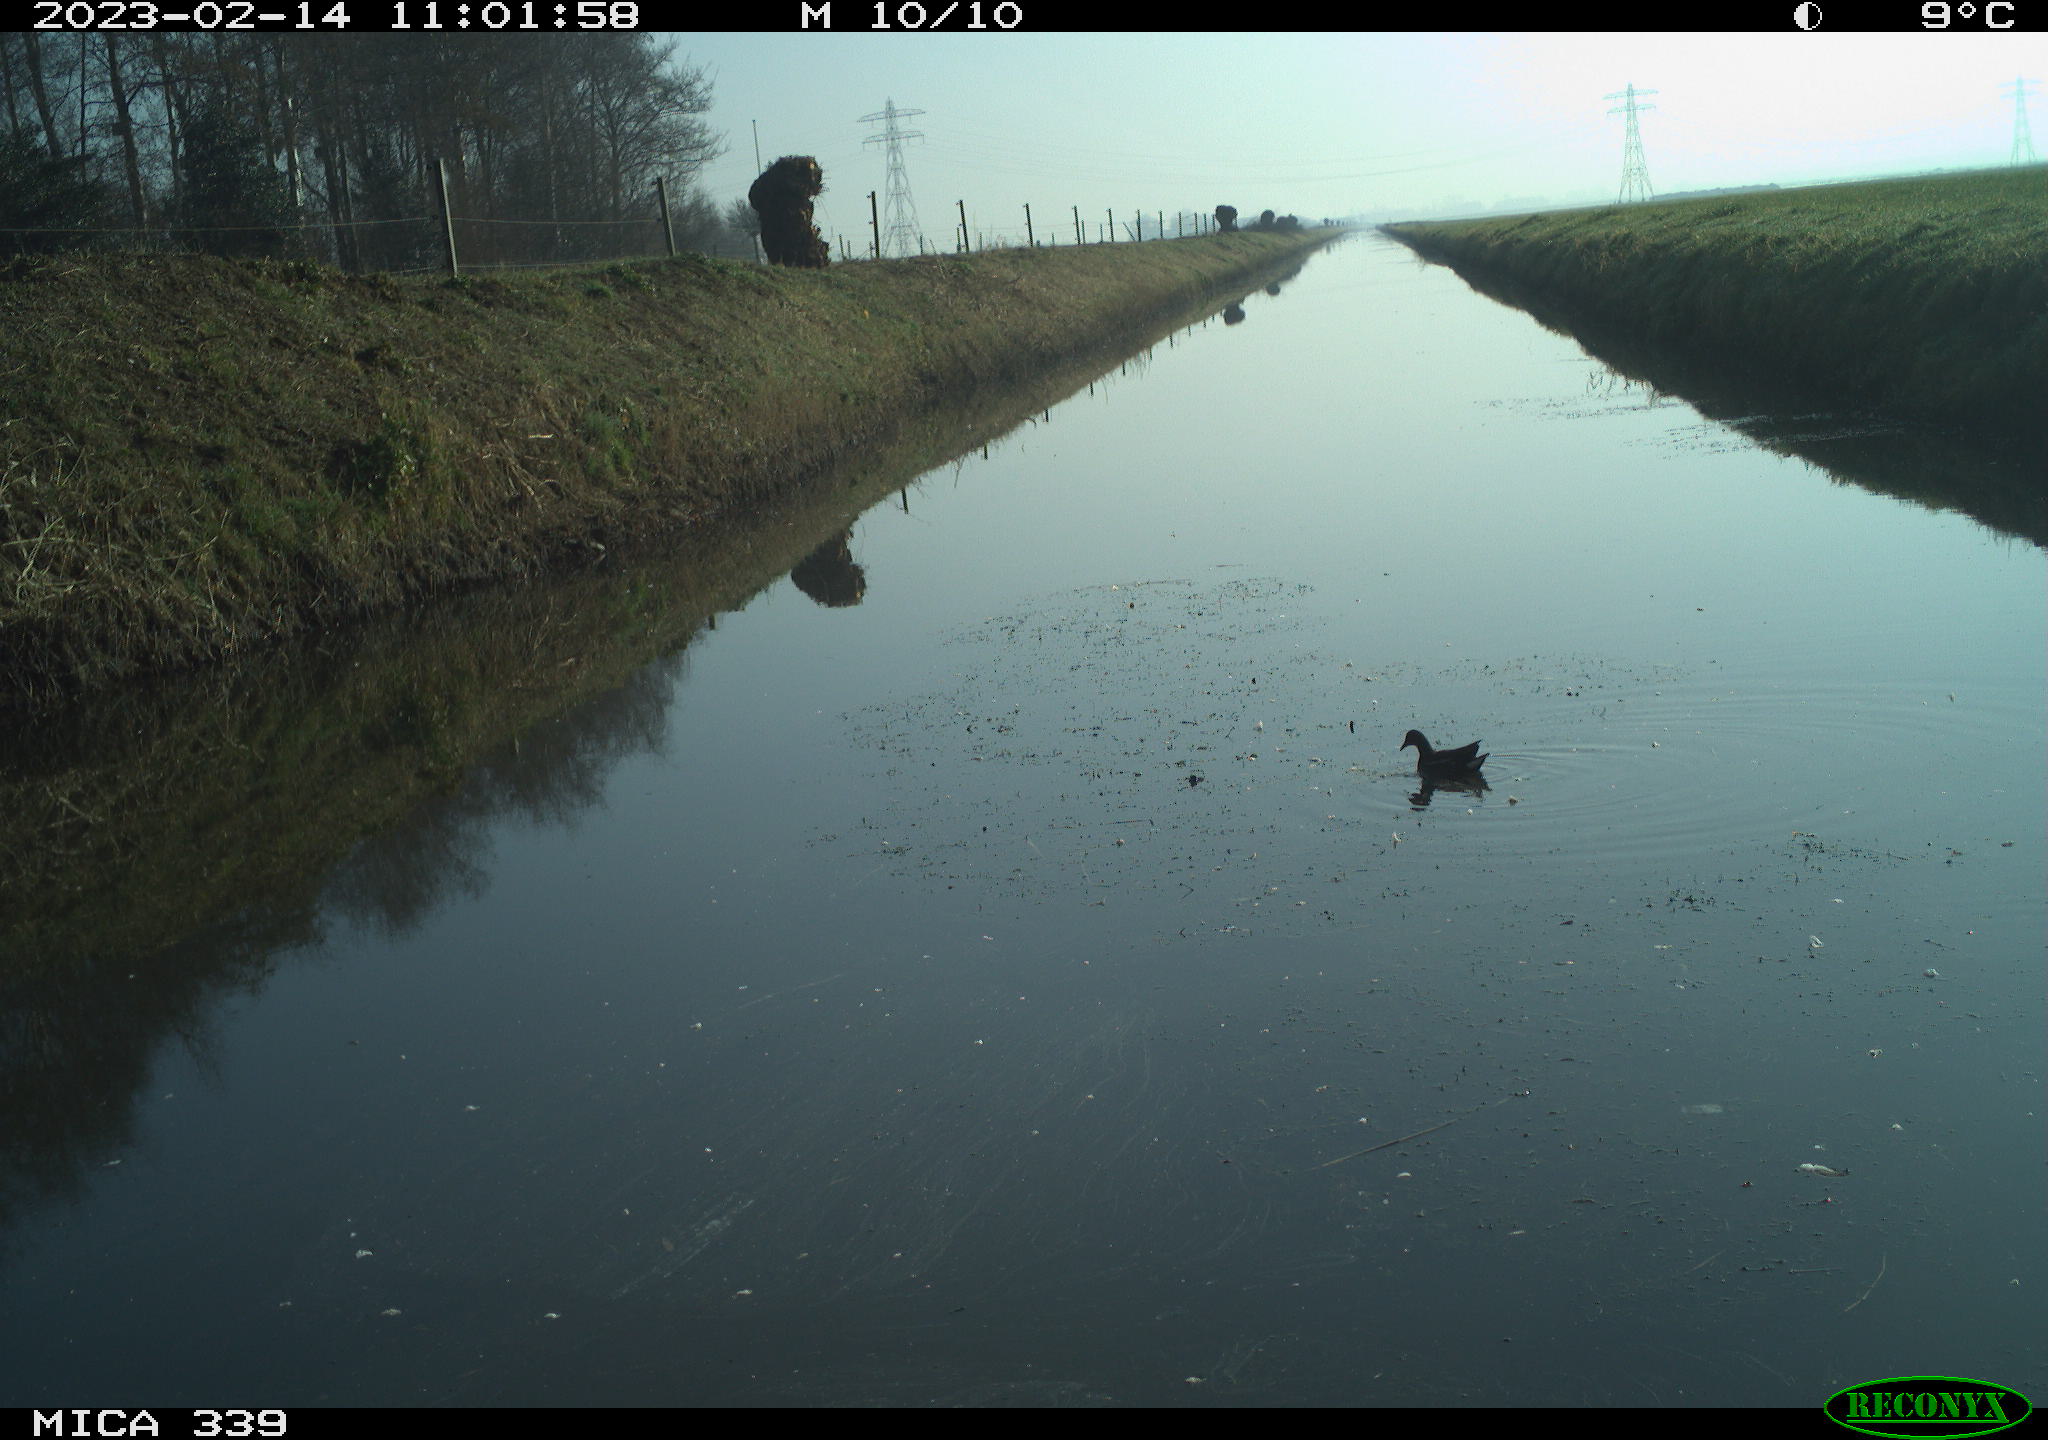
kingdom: Animalia
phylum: Chordata
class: Aves
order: Gruiformes
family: Rallidae
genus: Gallinula
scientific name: Gallinula chloropus
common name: Common moorhen
